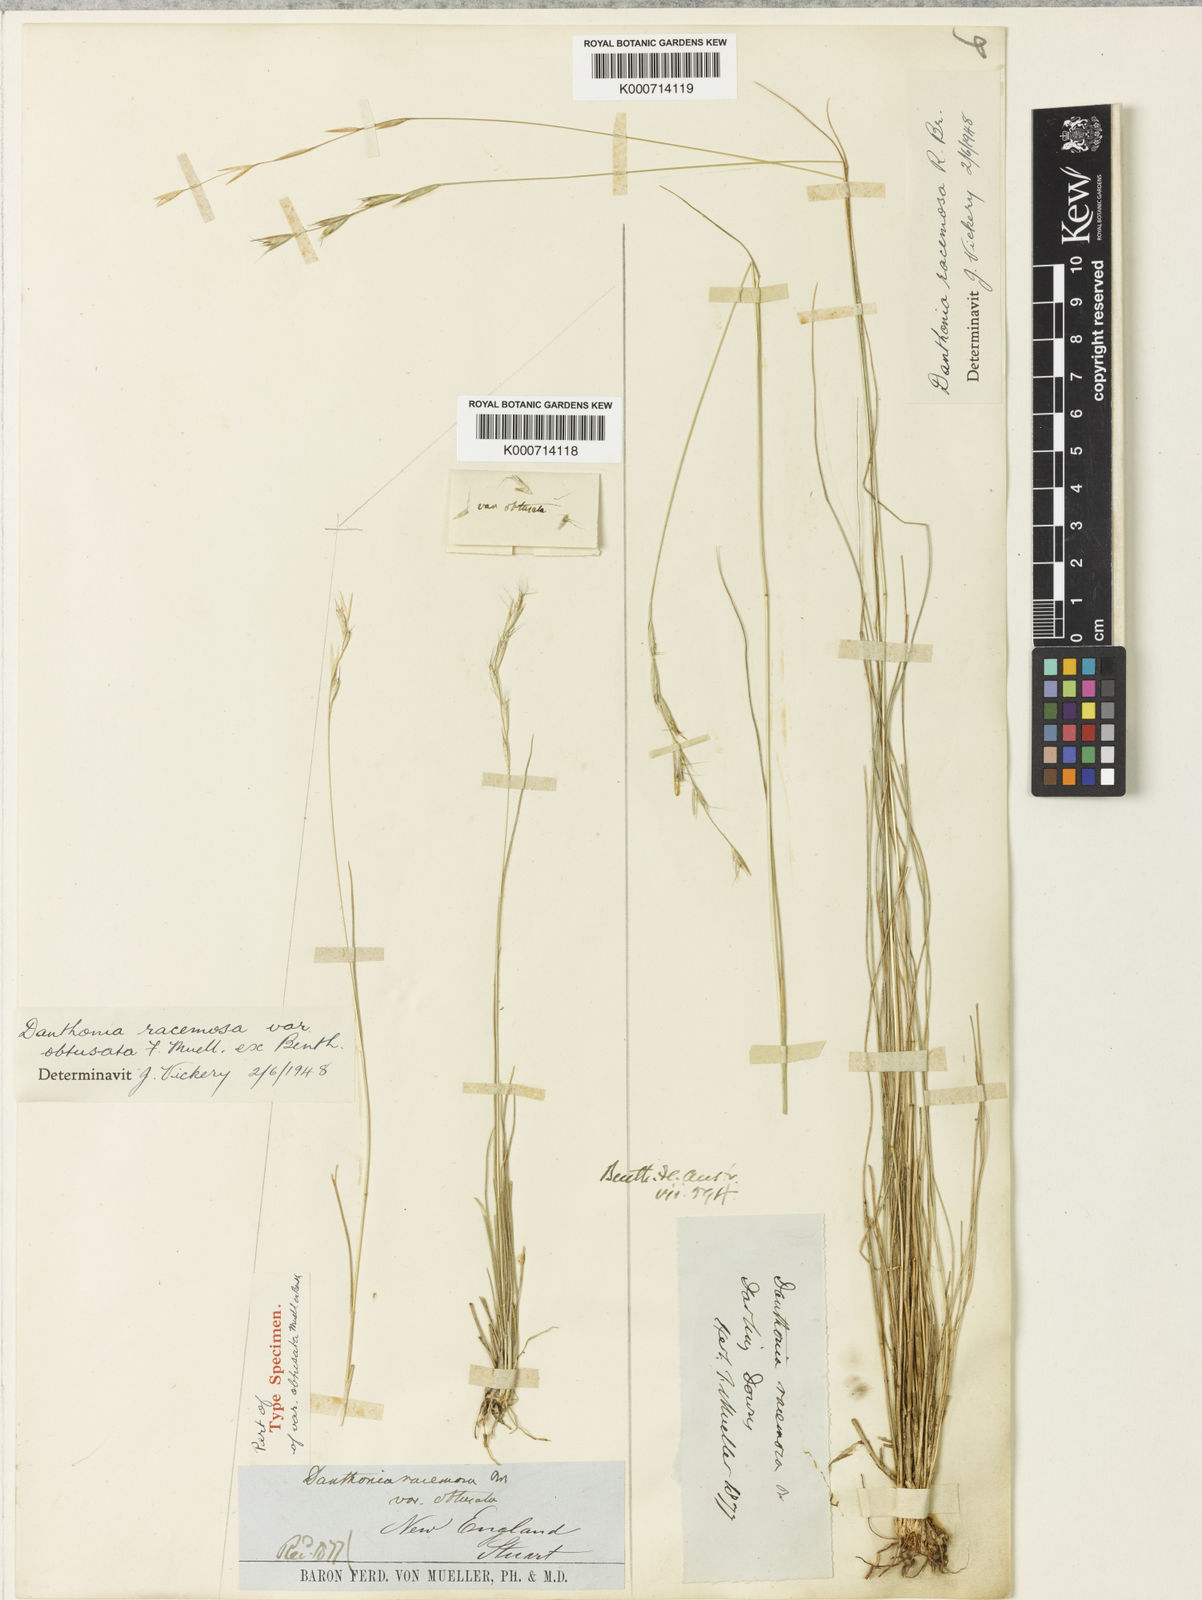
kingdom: Plantae
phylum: Tracheophyta
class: Liliopsida
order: Poales
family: Poaceae
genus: Rytidosperma
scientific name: Rytidosperma racemosum
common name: Wallaby-grass
